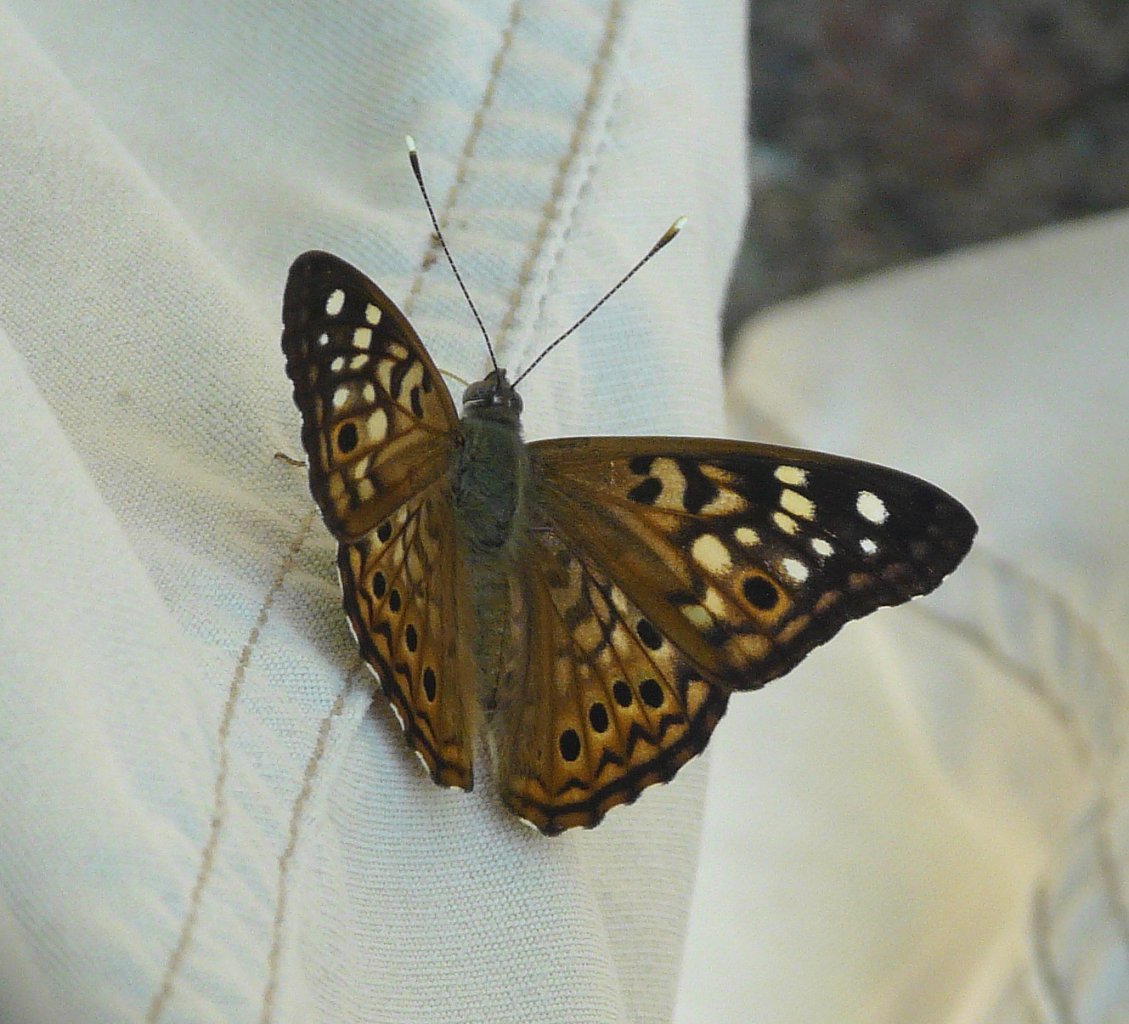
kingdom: Animalia
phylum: Arthropoda
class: Insecta
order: Lepidoptera
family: Nymphalidae
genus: Asterocampa
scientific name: Asterocampa celtis
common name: Hackberry Emperor
